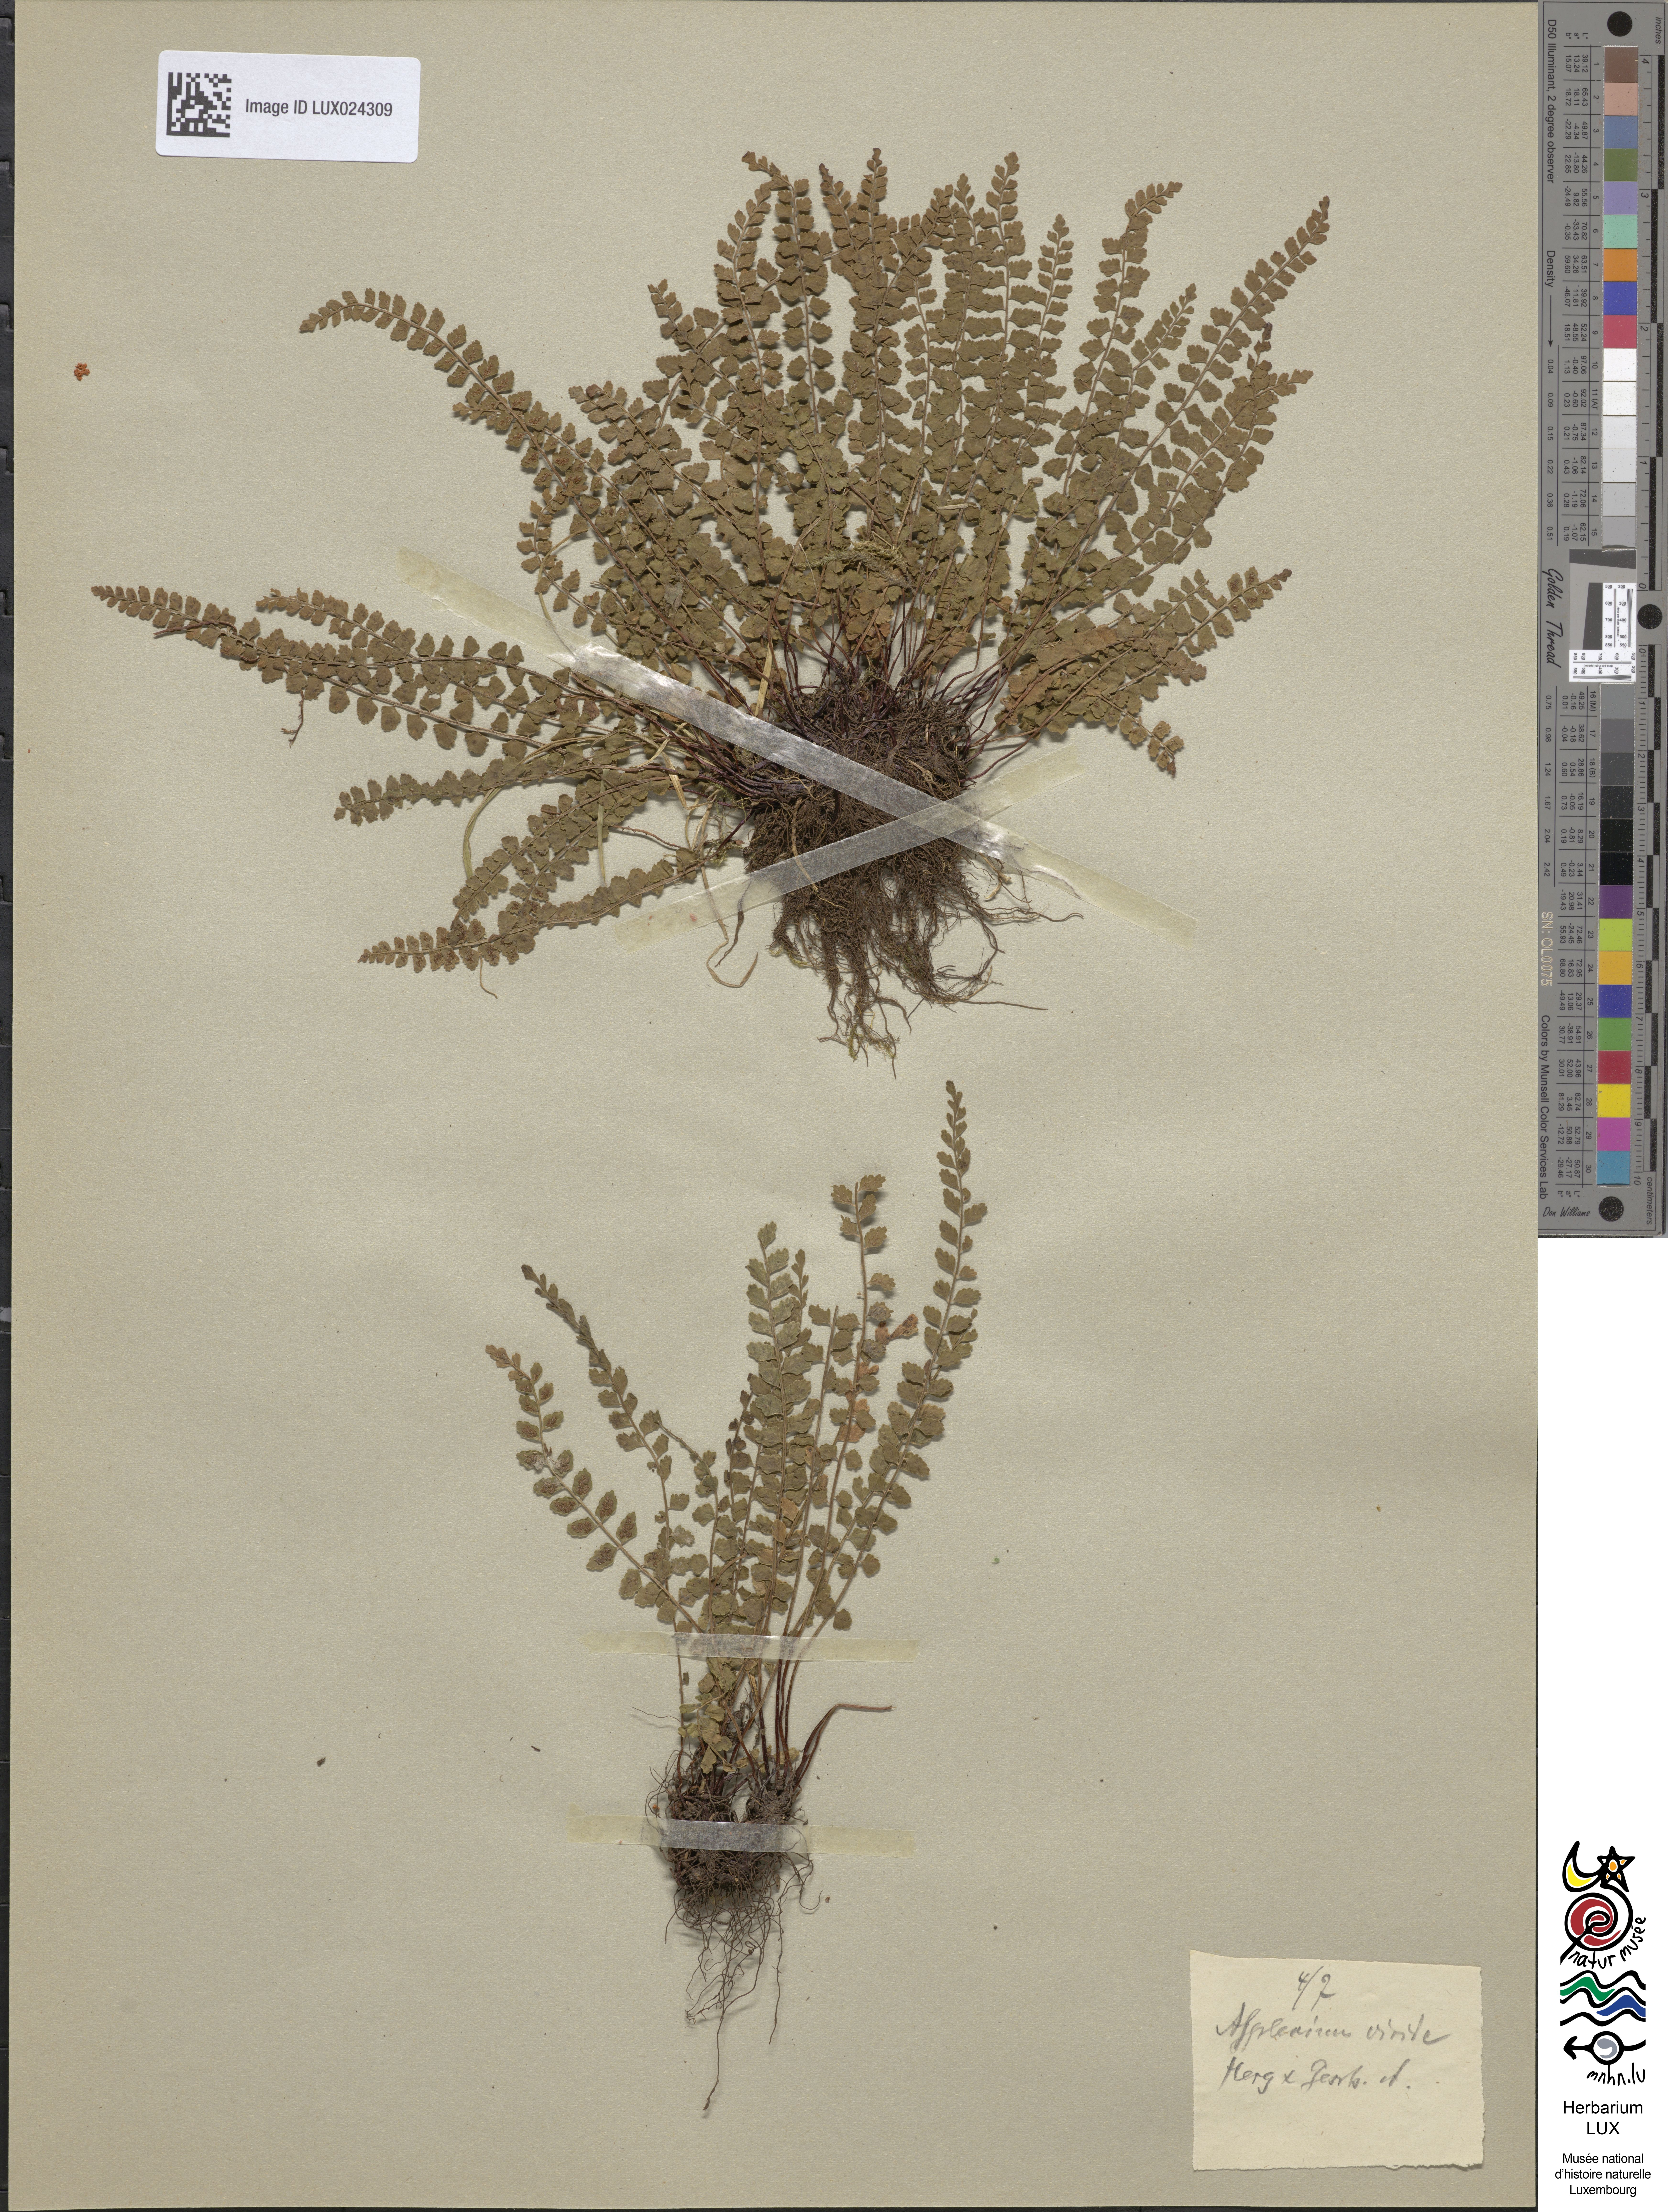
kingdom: Plantae
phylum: Tracheophyta
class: Polypodiopsida
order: Polypodiales
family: Aspleniaceae
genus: Asplenium
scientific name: Asplenium viride
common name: Green spleenwort
